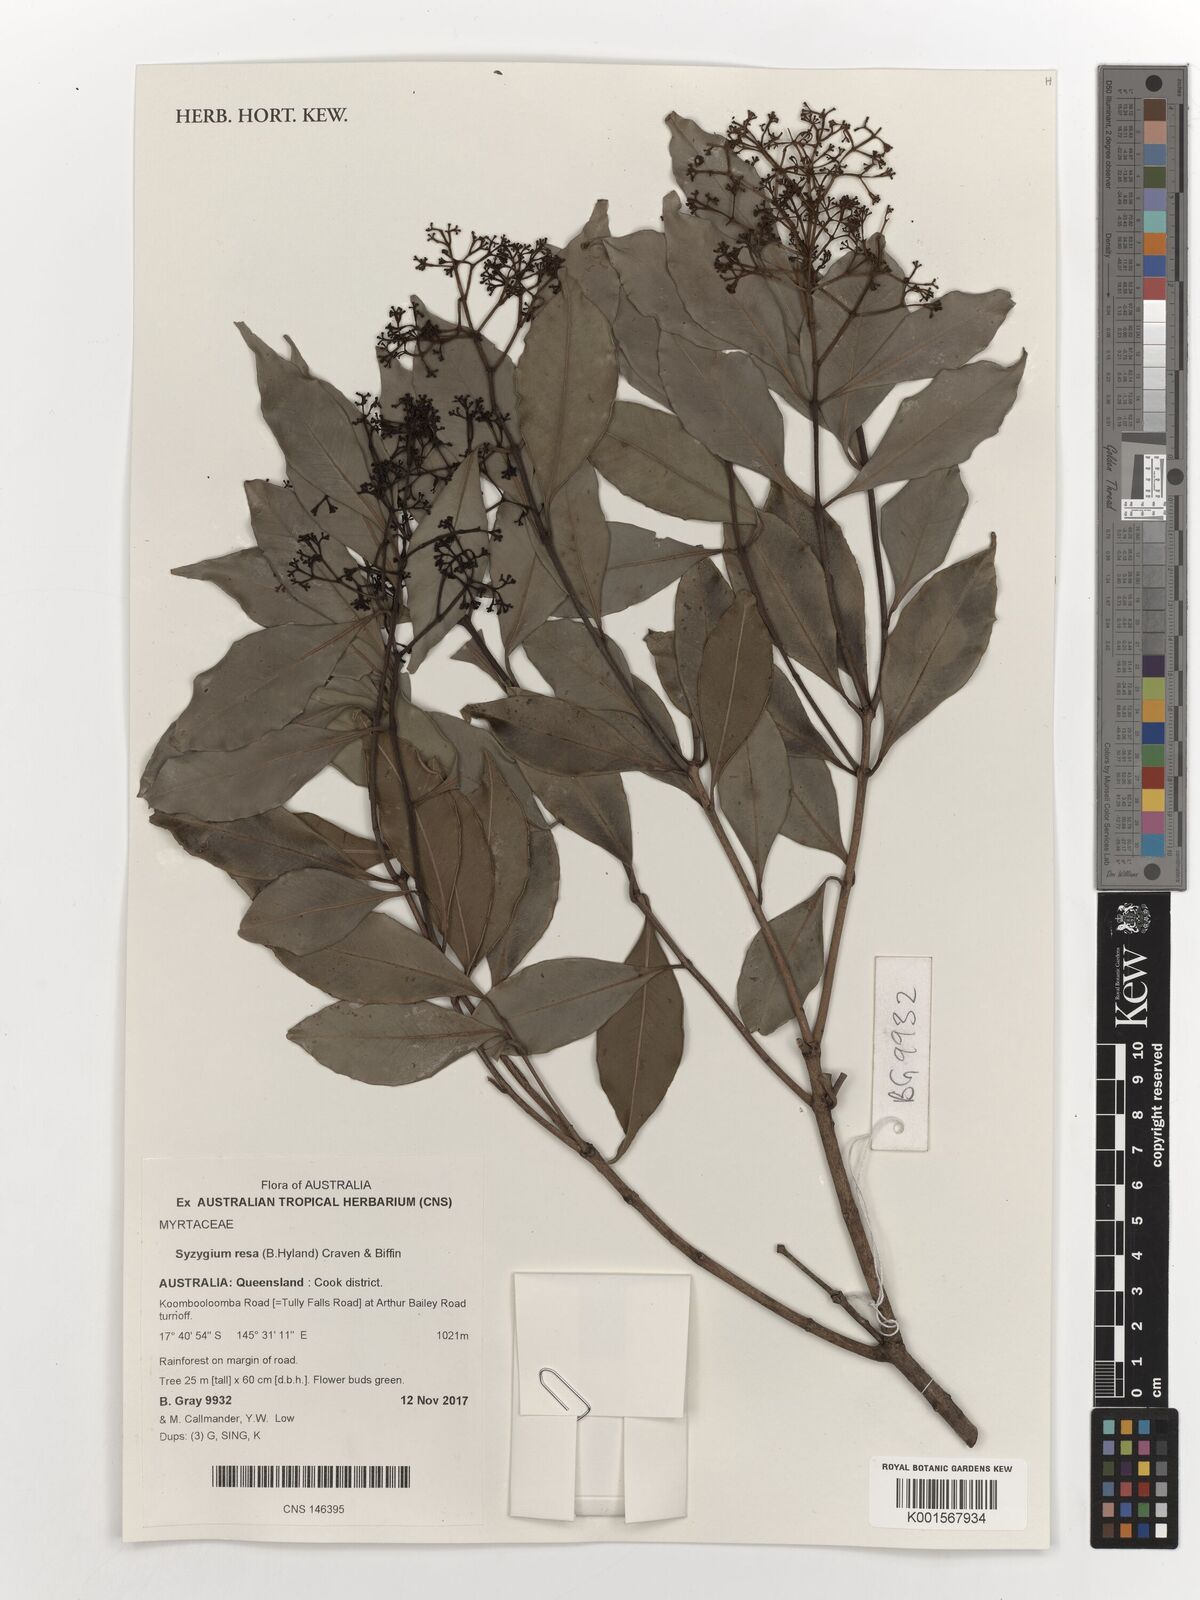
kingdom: Plantae
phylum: Tracheophyta
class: Magnoliopsida
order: Myrtales
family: Myrtaceae
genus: Syzygium
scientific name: Syzygium resa
